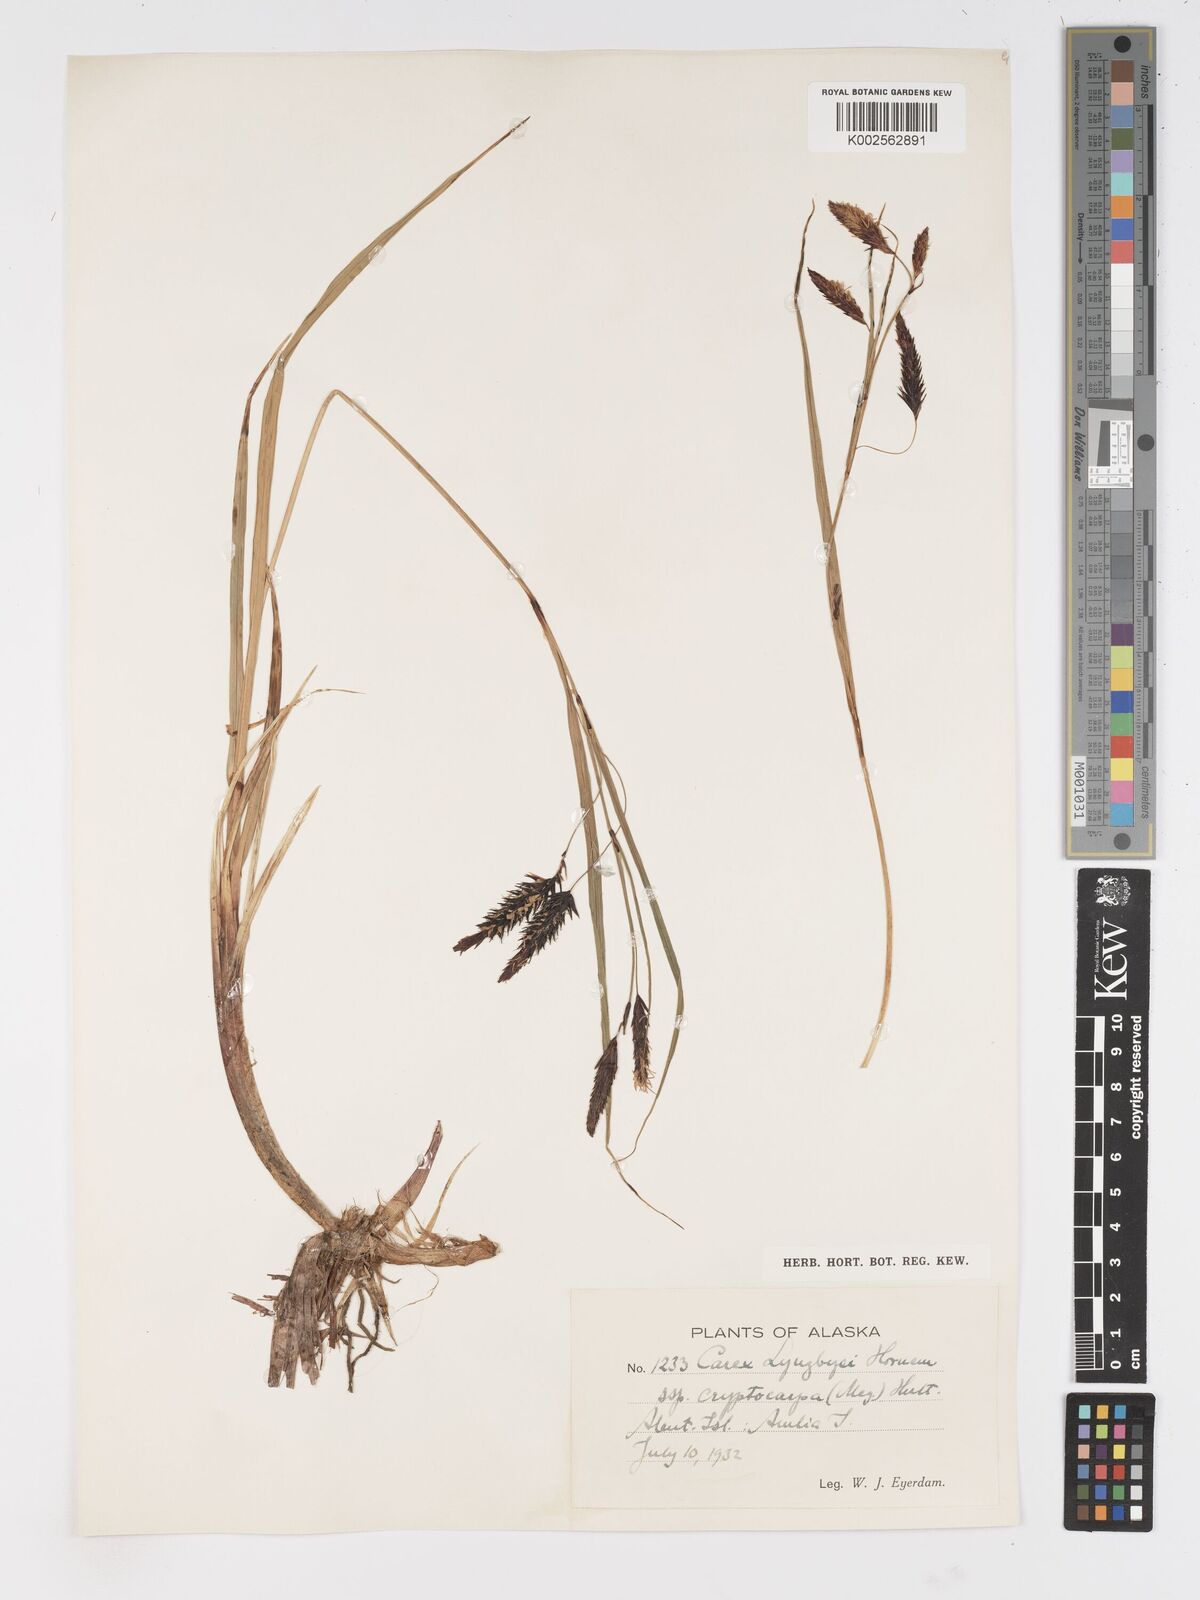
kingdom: Plantae
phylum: Tracheophyta
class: Liliopsida
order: Poales
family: Cyperaceae
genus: Carex
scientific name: Carex lyngbyei
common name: Lyngbye's sedge
